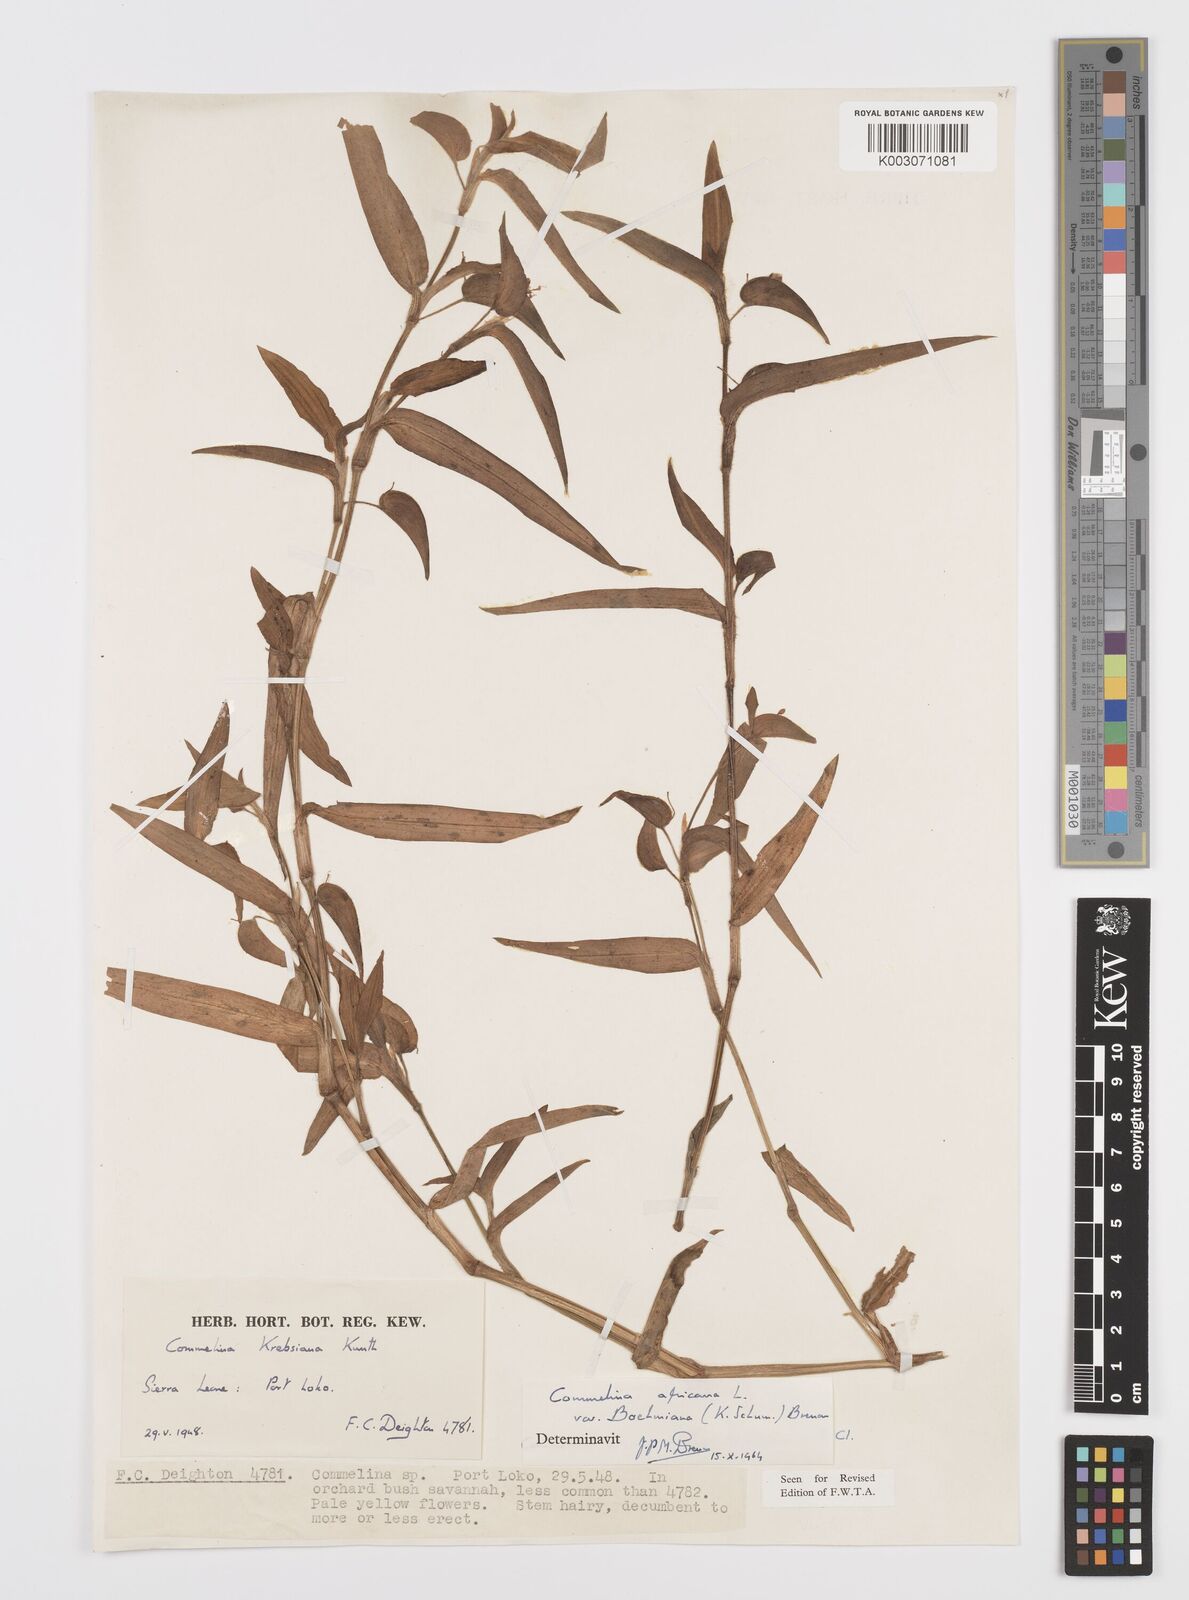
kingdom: Plantae
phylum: Tracheophyta
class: Liliopsida
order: Commelinales
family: Commelinaceae
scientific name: Commelinaceae
